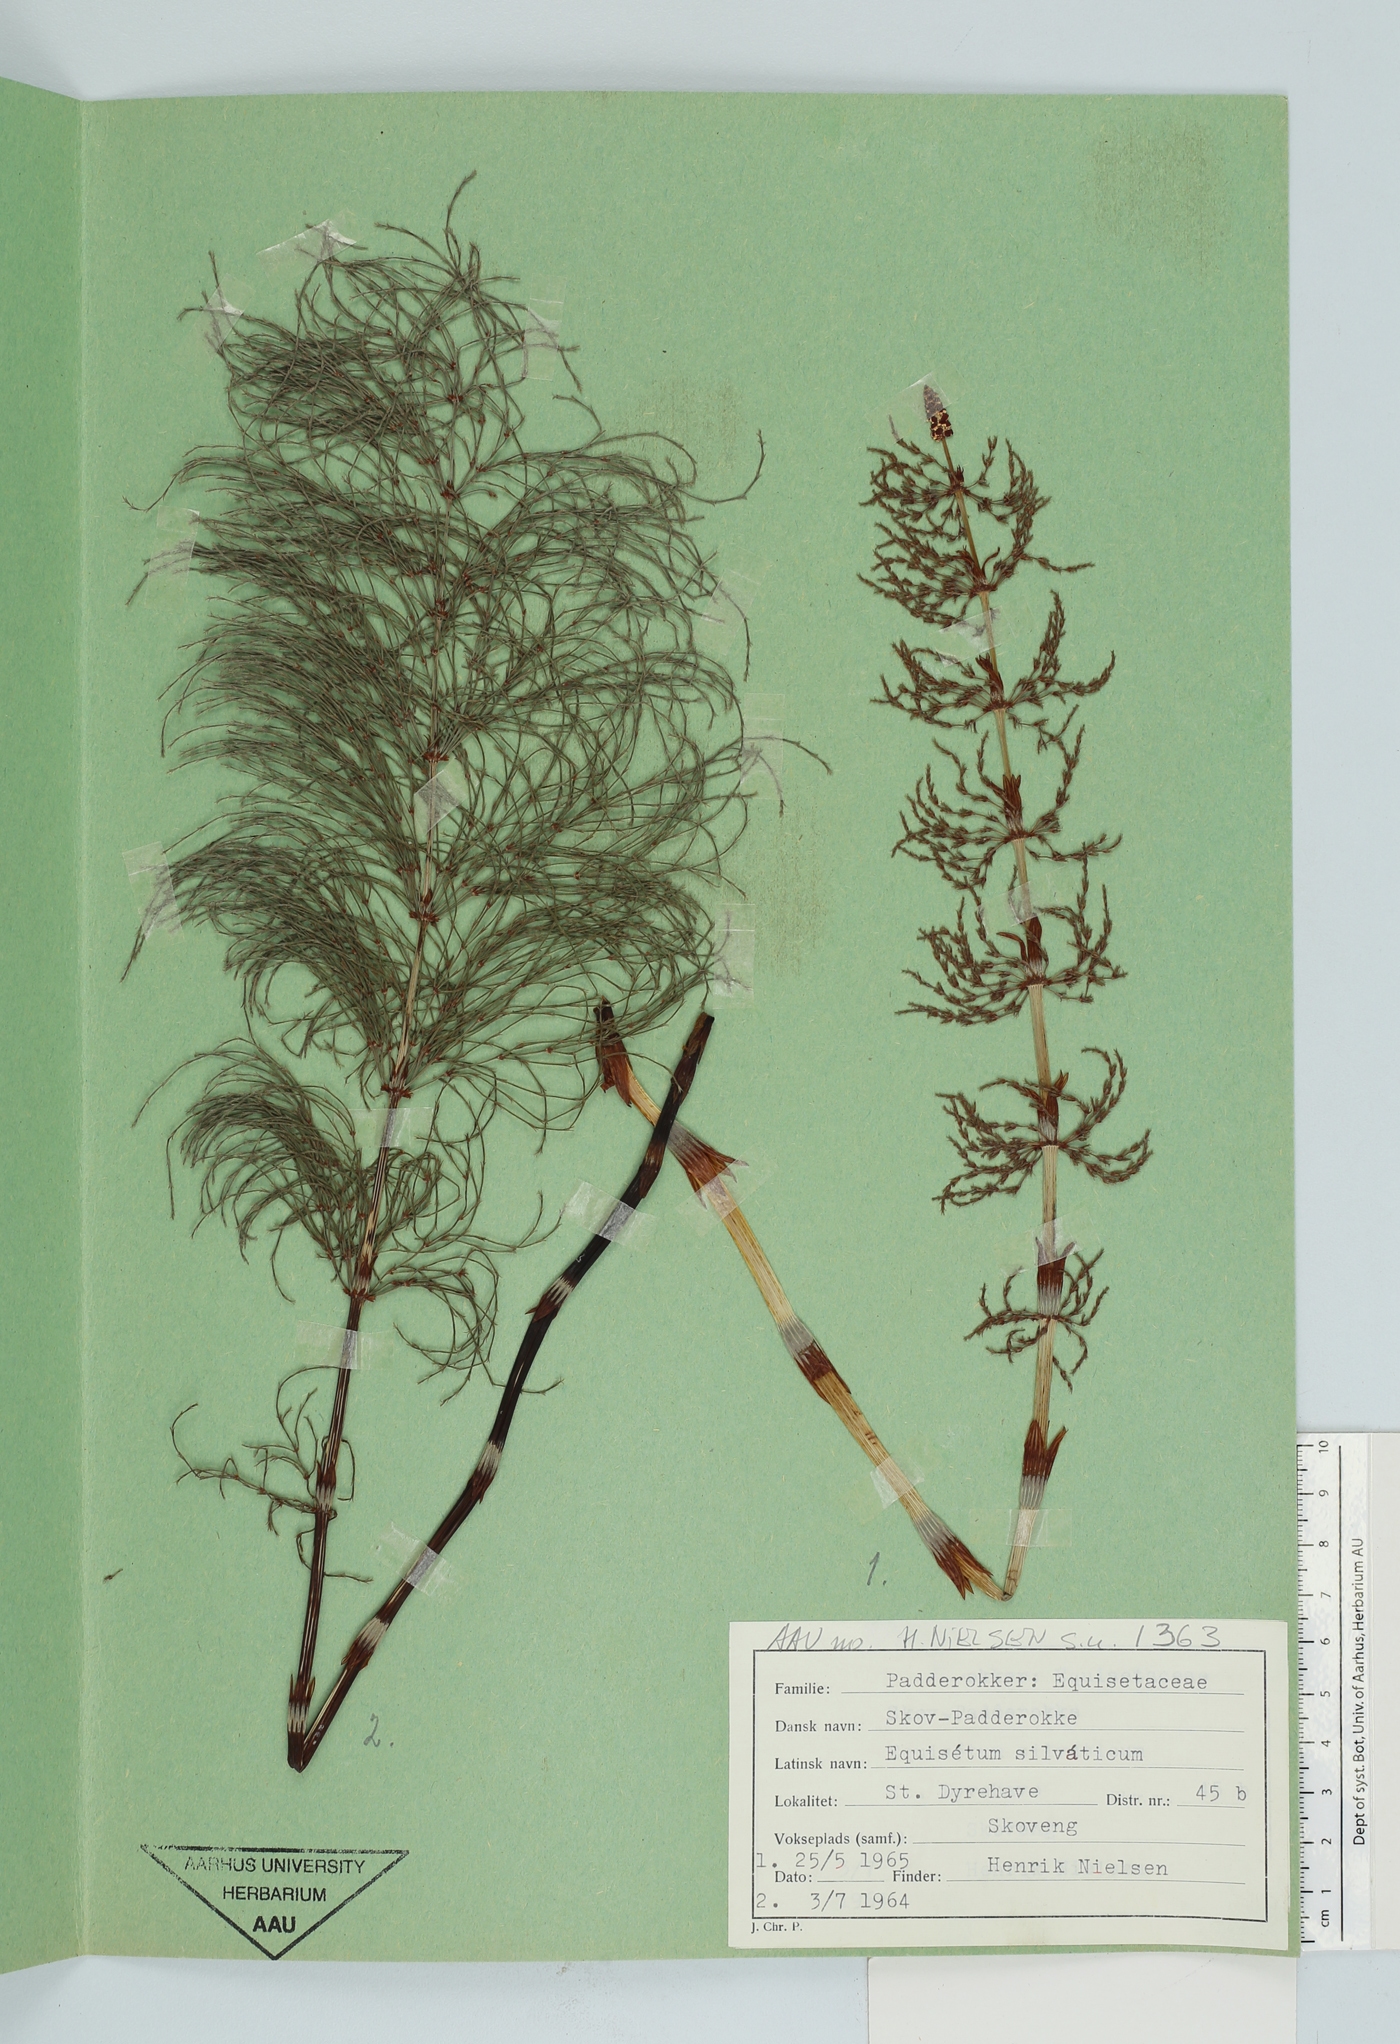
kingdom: Plantae
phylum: Tracheophyta
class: Polypodiopsida
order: Equisetales
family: Equisetaceae
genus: Equisetum
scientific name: Equisetum sylvaticum
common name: Wood horsetail
